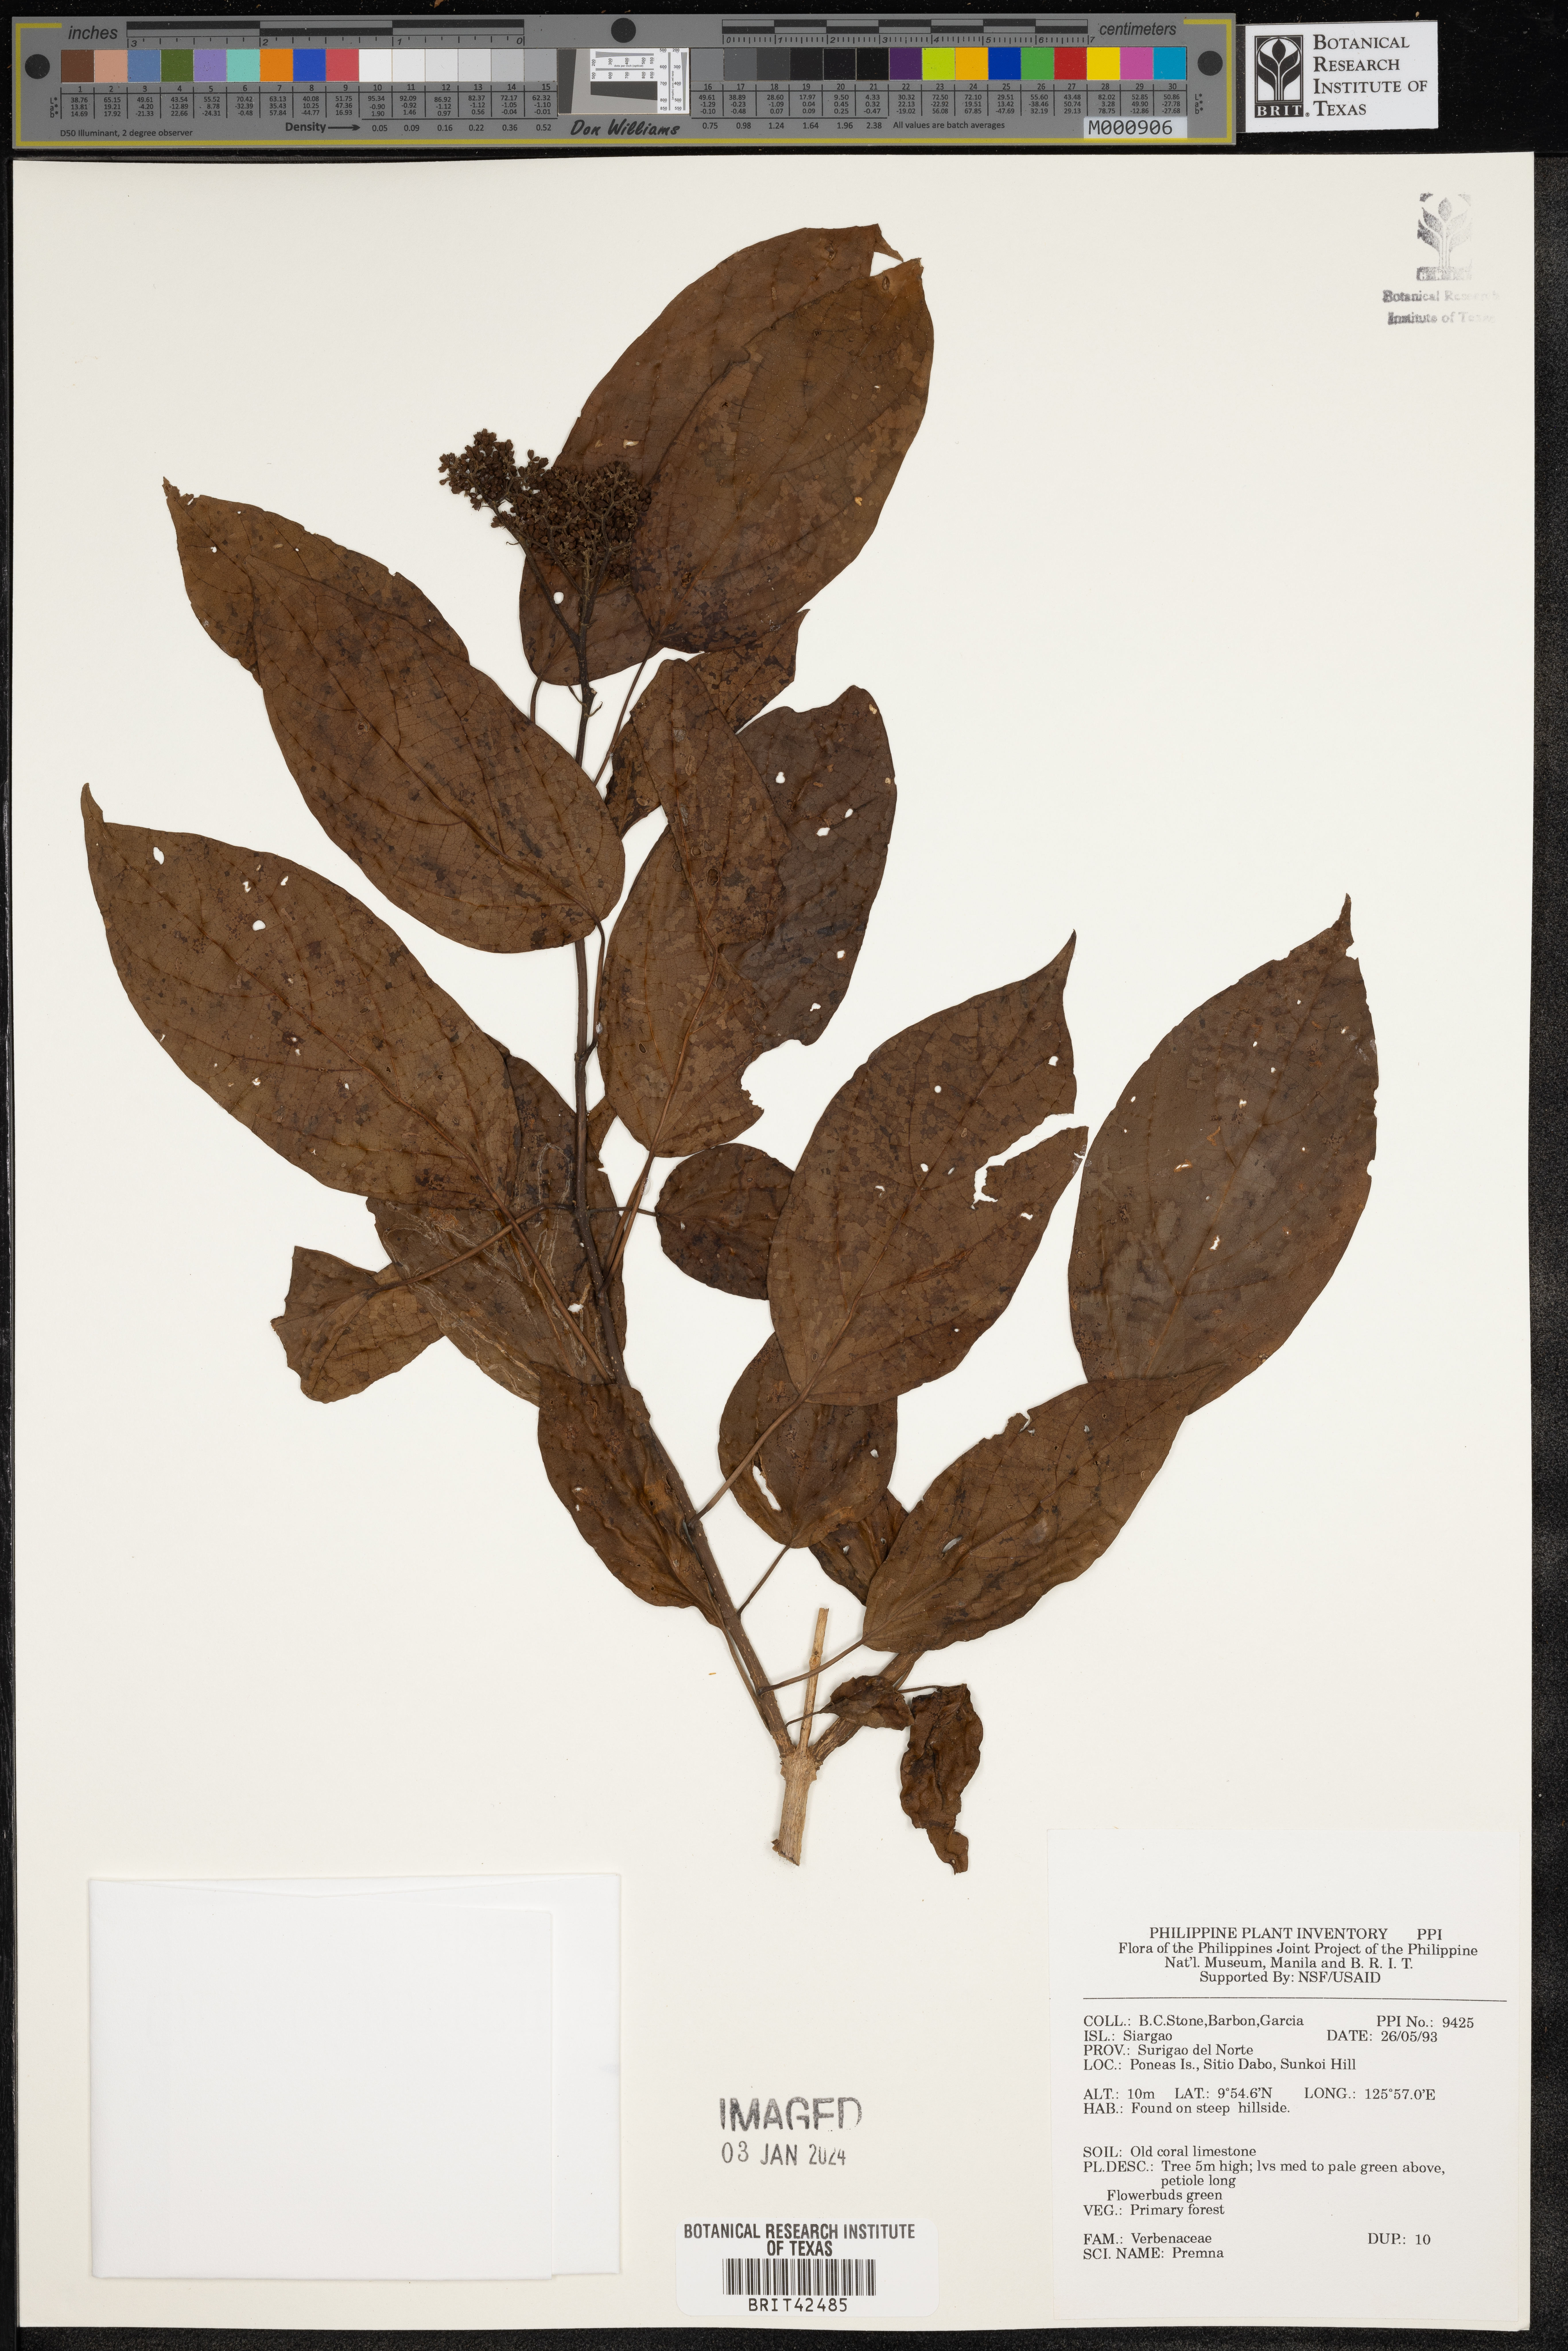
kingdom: Plantae
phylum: Tracheophyta
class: Magnoliopsida
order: Lamiales
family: Lamiaceae
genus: Premna
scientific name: Premna
